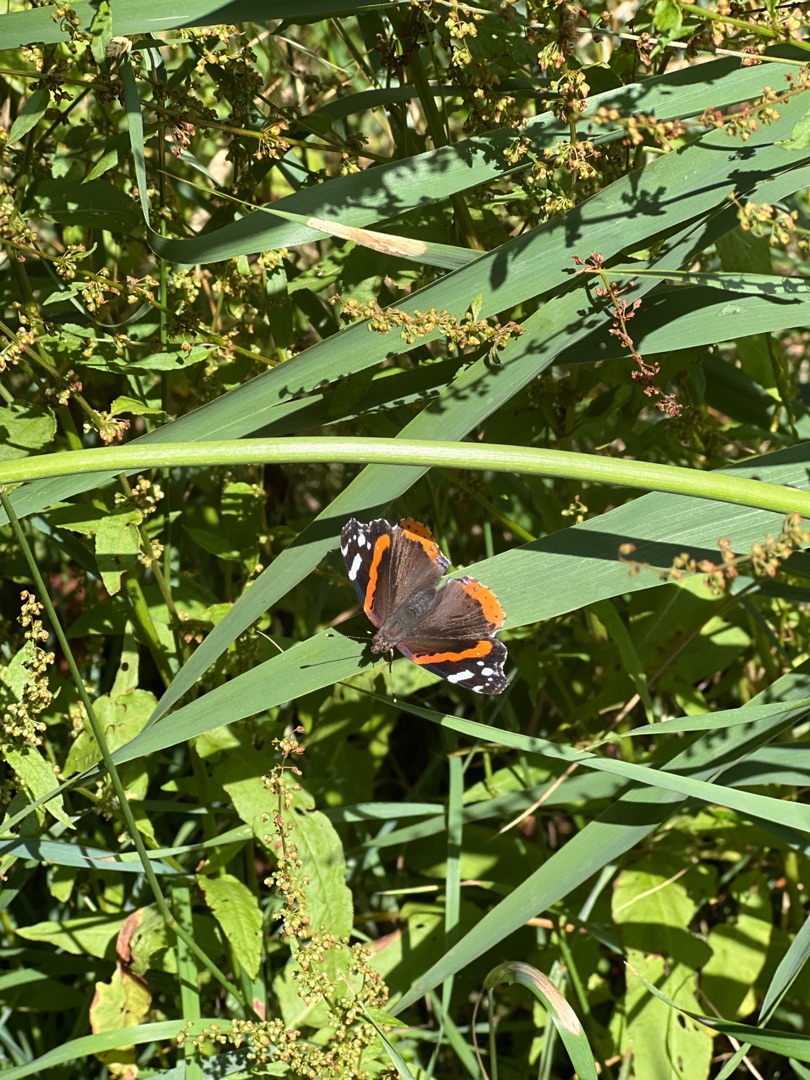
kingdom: Animalia
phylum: Arthropoda
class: Insecta
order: Lepidoptera
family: Nymphalidae
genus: Vanessa
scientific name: Vanessa atalanta
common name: Admiral
